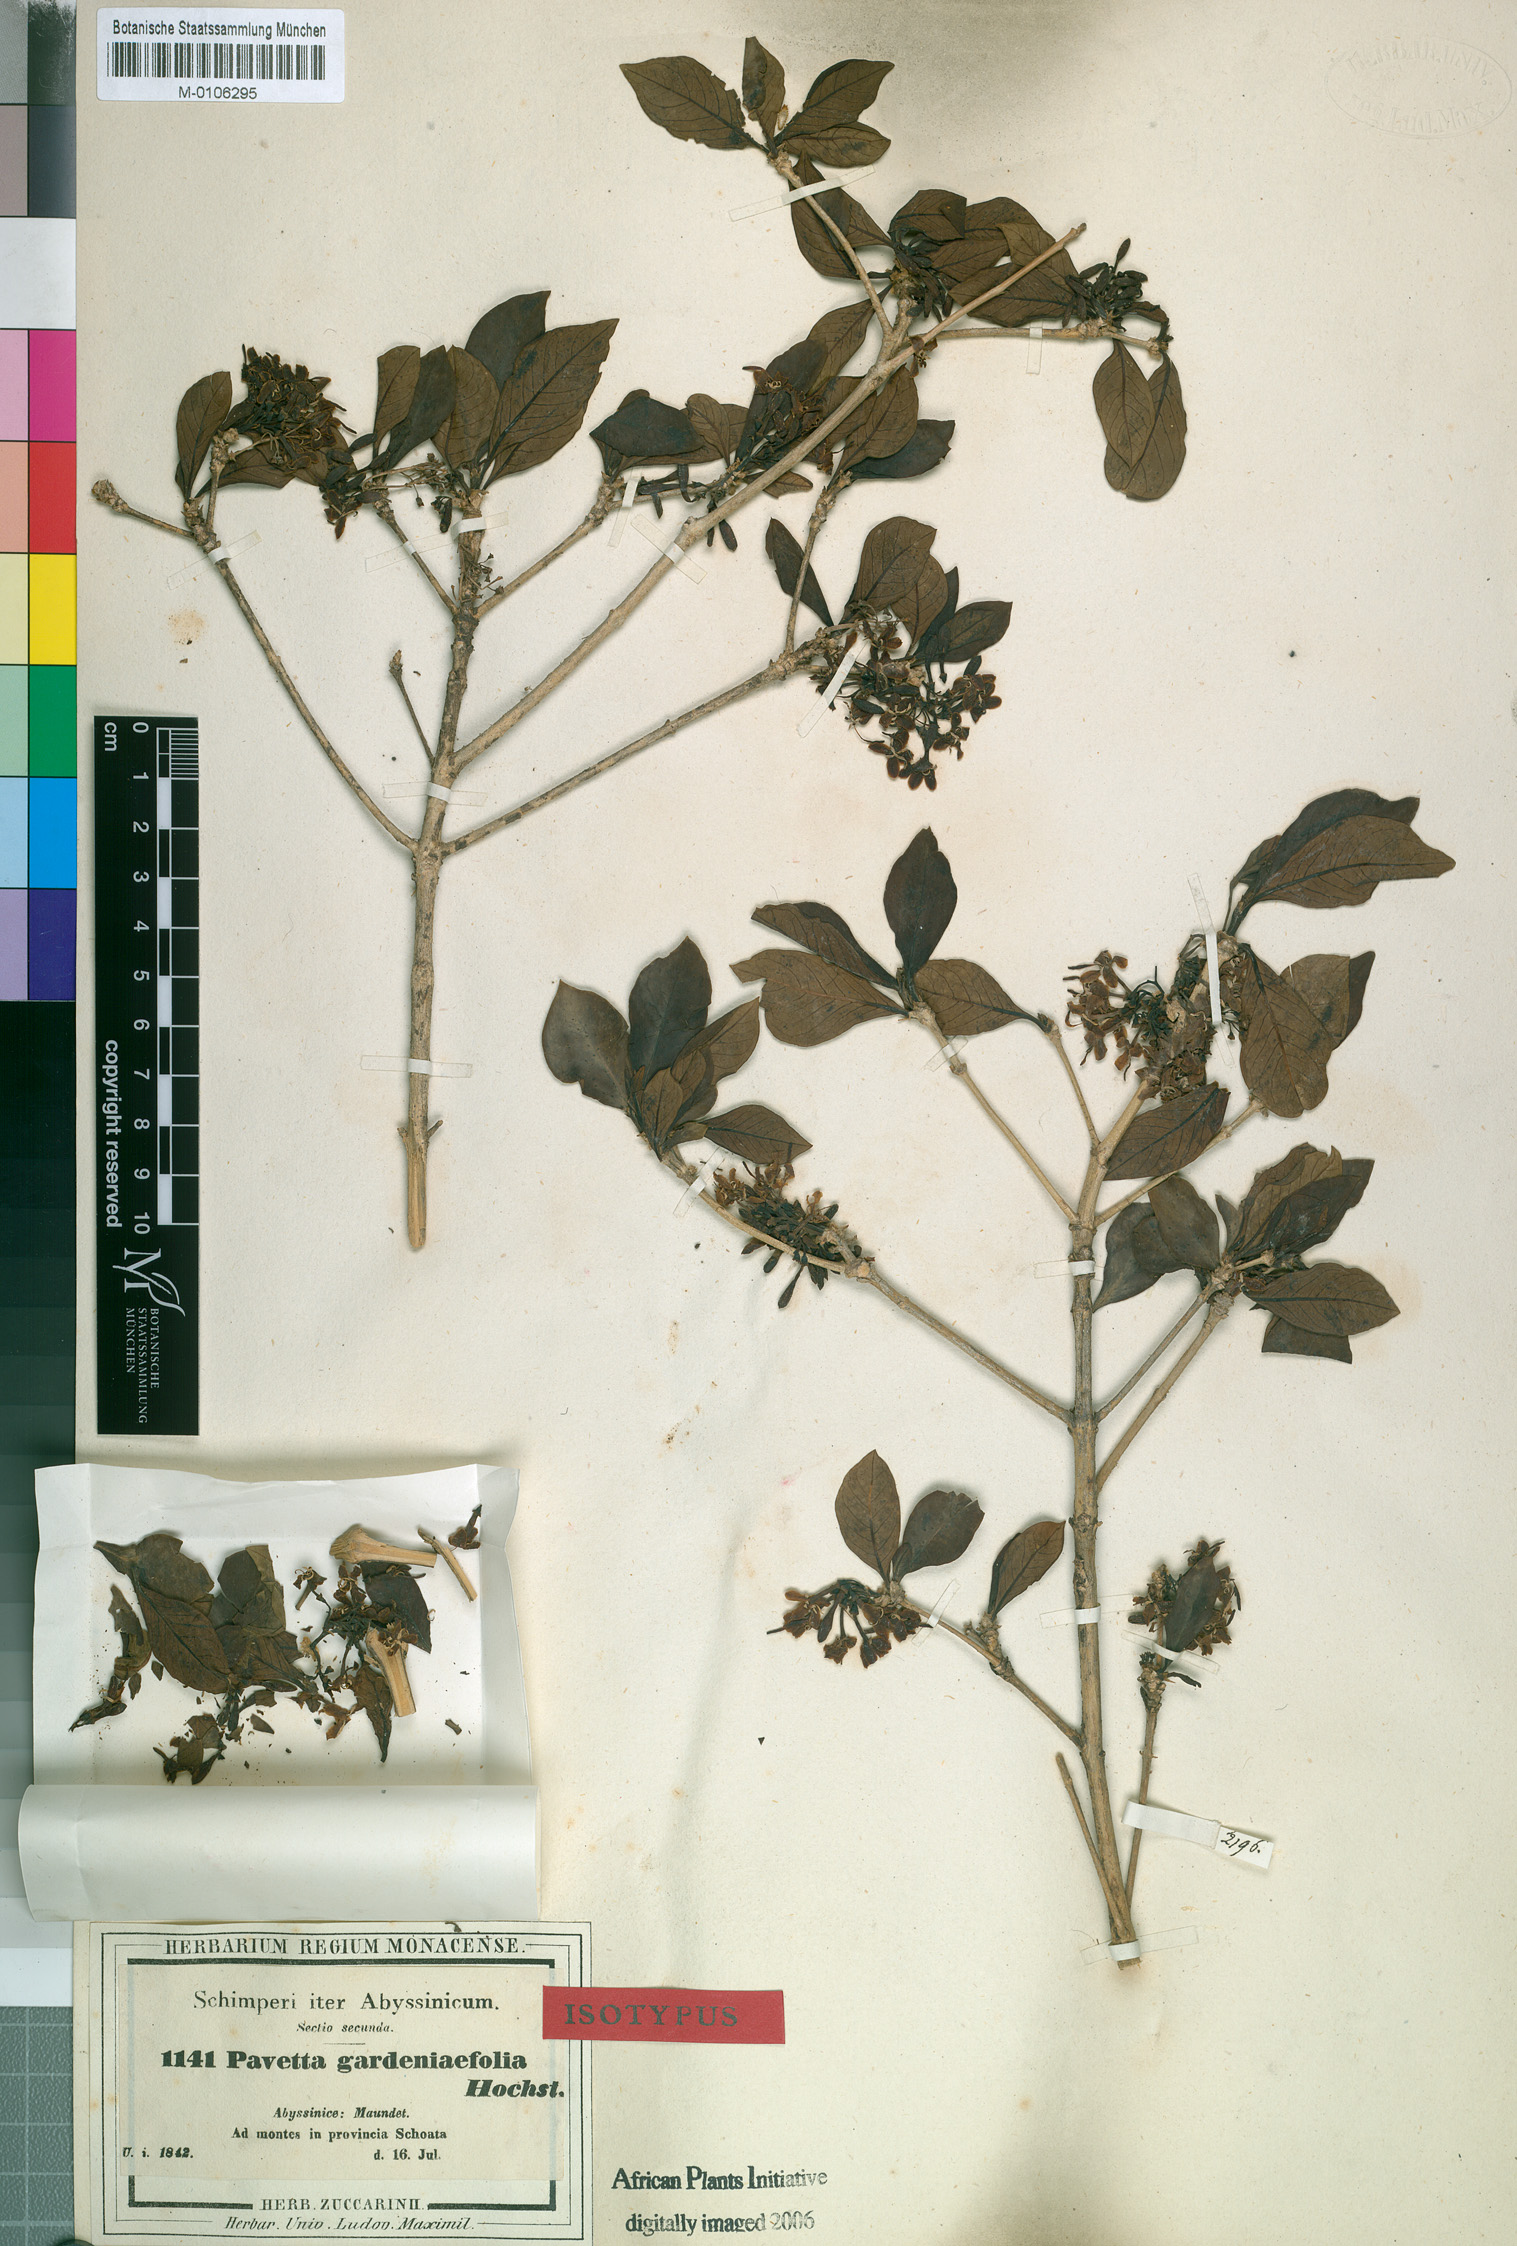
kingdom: Plantae
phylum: Tracheophyta
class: Magnoliopsida
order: Gentianales
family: Rubiaceae
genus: Pavetta
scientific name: Pavetta gardeniifolia
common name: Common brides-bush
